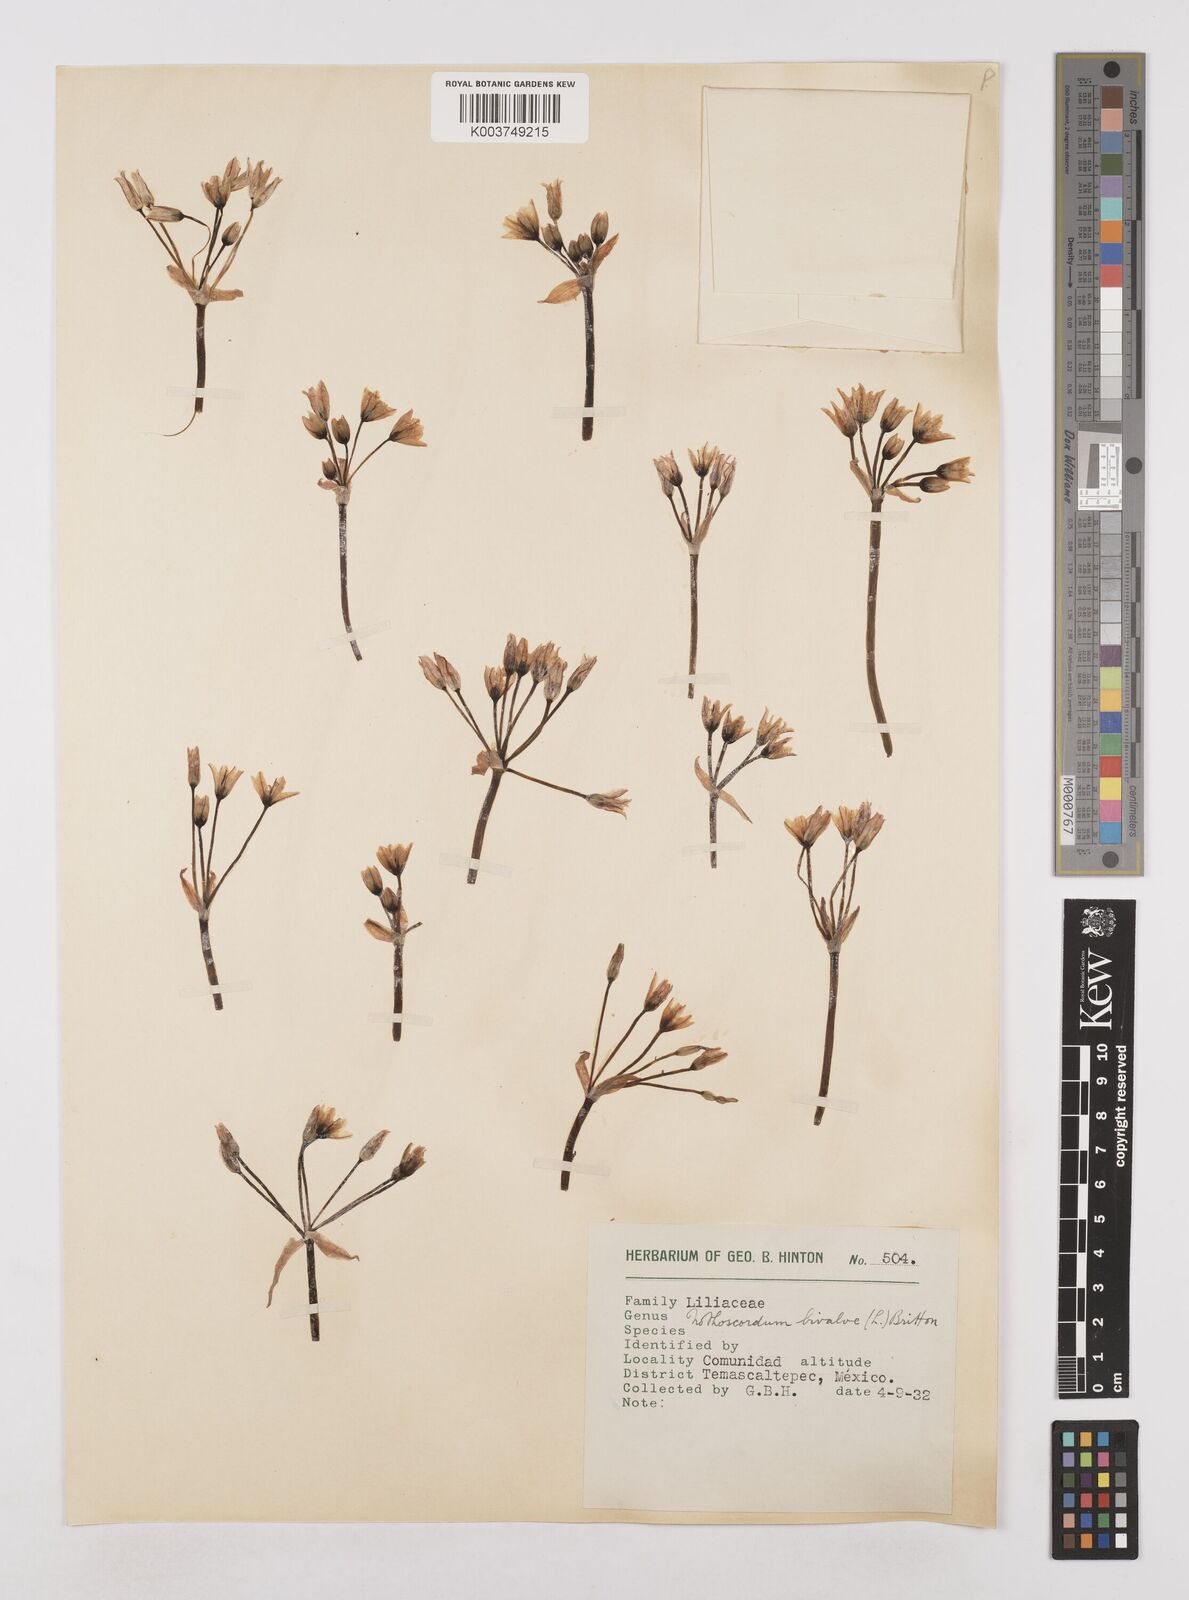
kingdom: Plantae
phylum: Tracheophyta
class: Liliopsida
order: Asparagales
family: Amaryllidaceae
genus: Nothoscordum
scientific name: Nothoscordum bivalve
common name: Crow-poison
